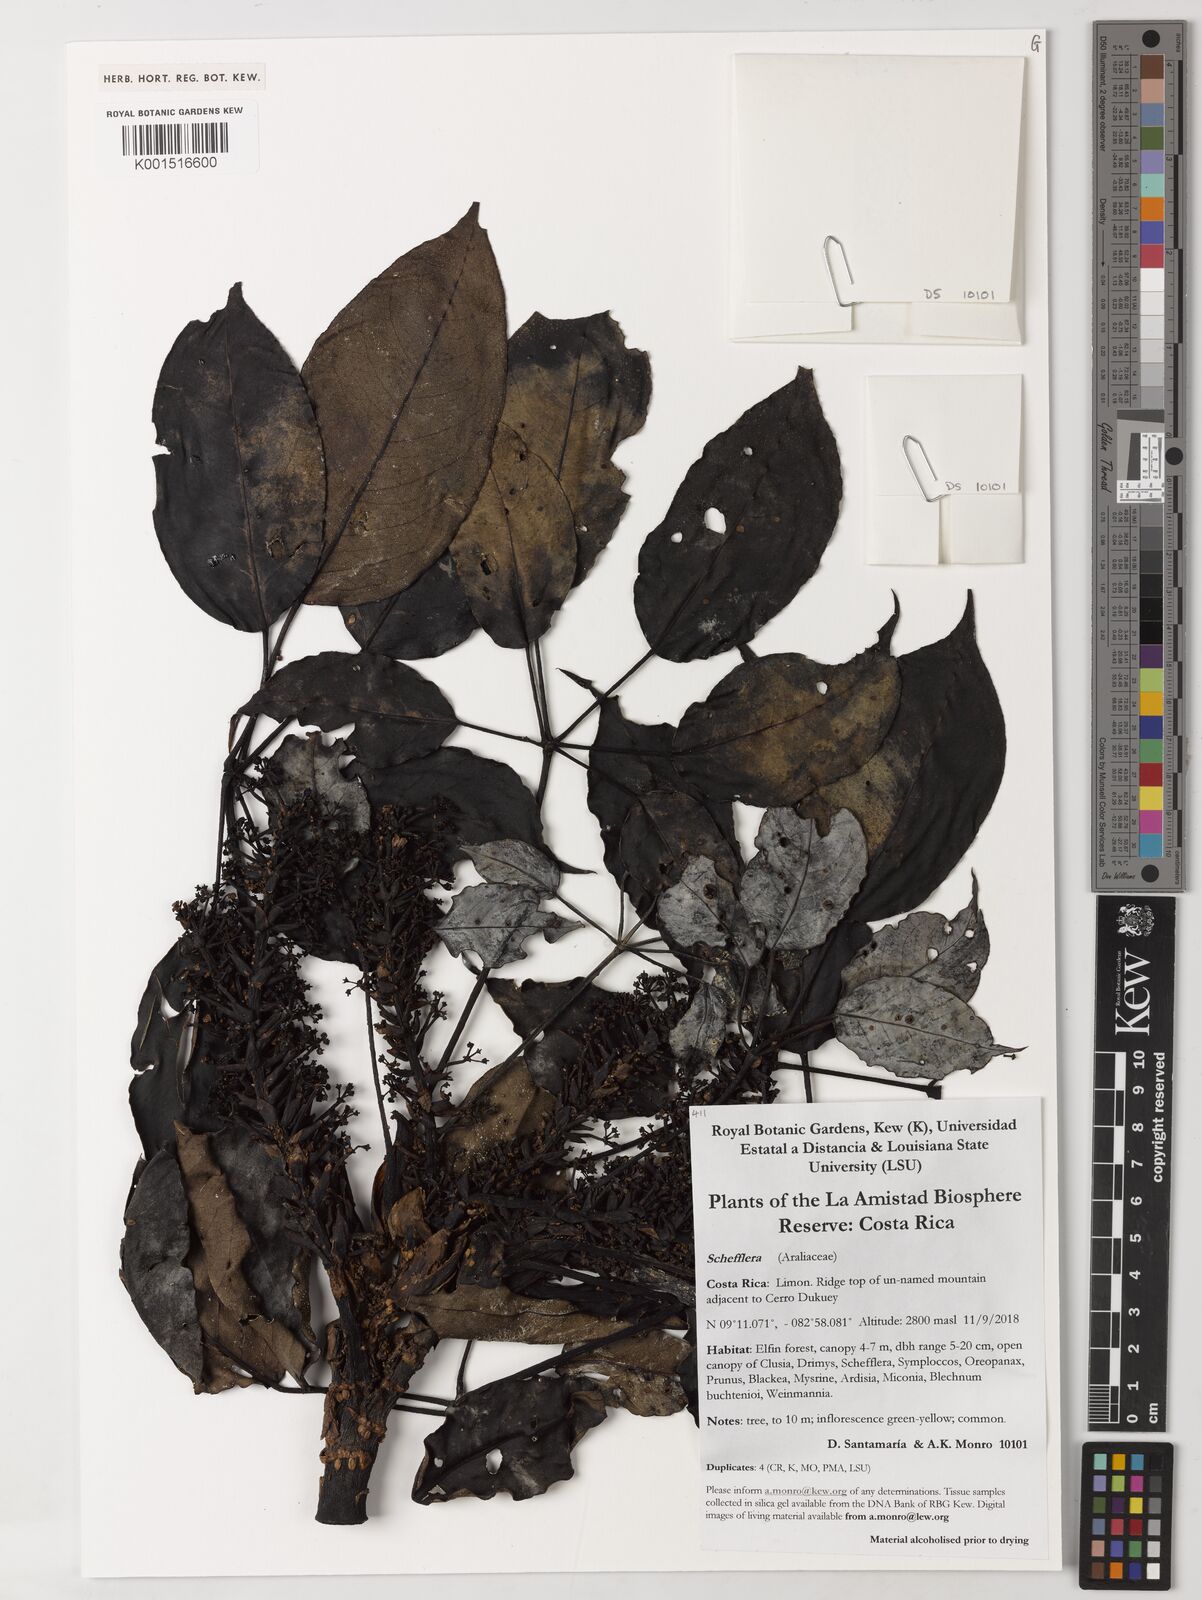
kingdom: Plantae
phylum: Tracheophyta
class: Magnoliopsida
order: Apiales
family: Araliaceae
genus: Schefflera
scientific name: Schefflera
